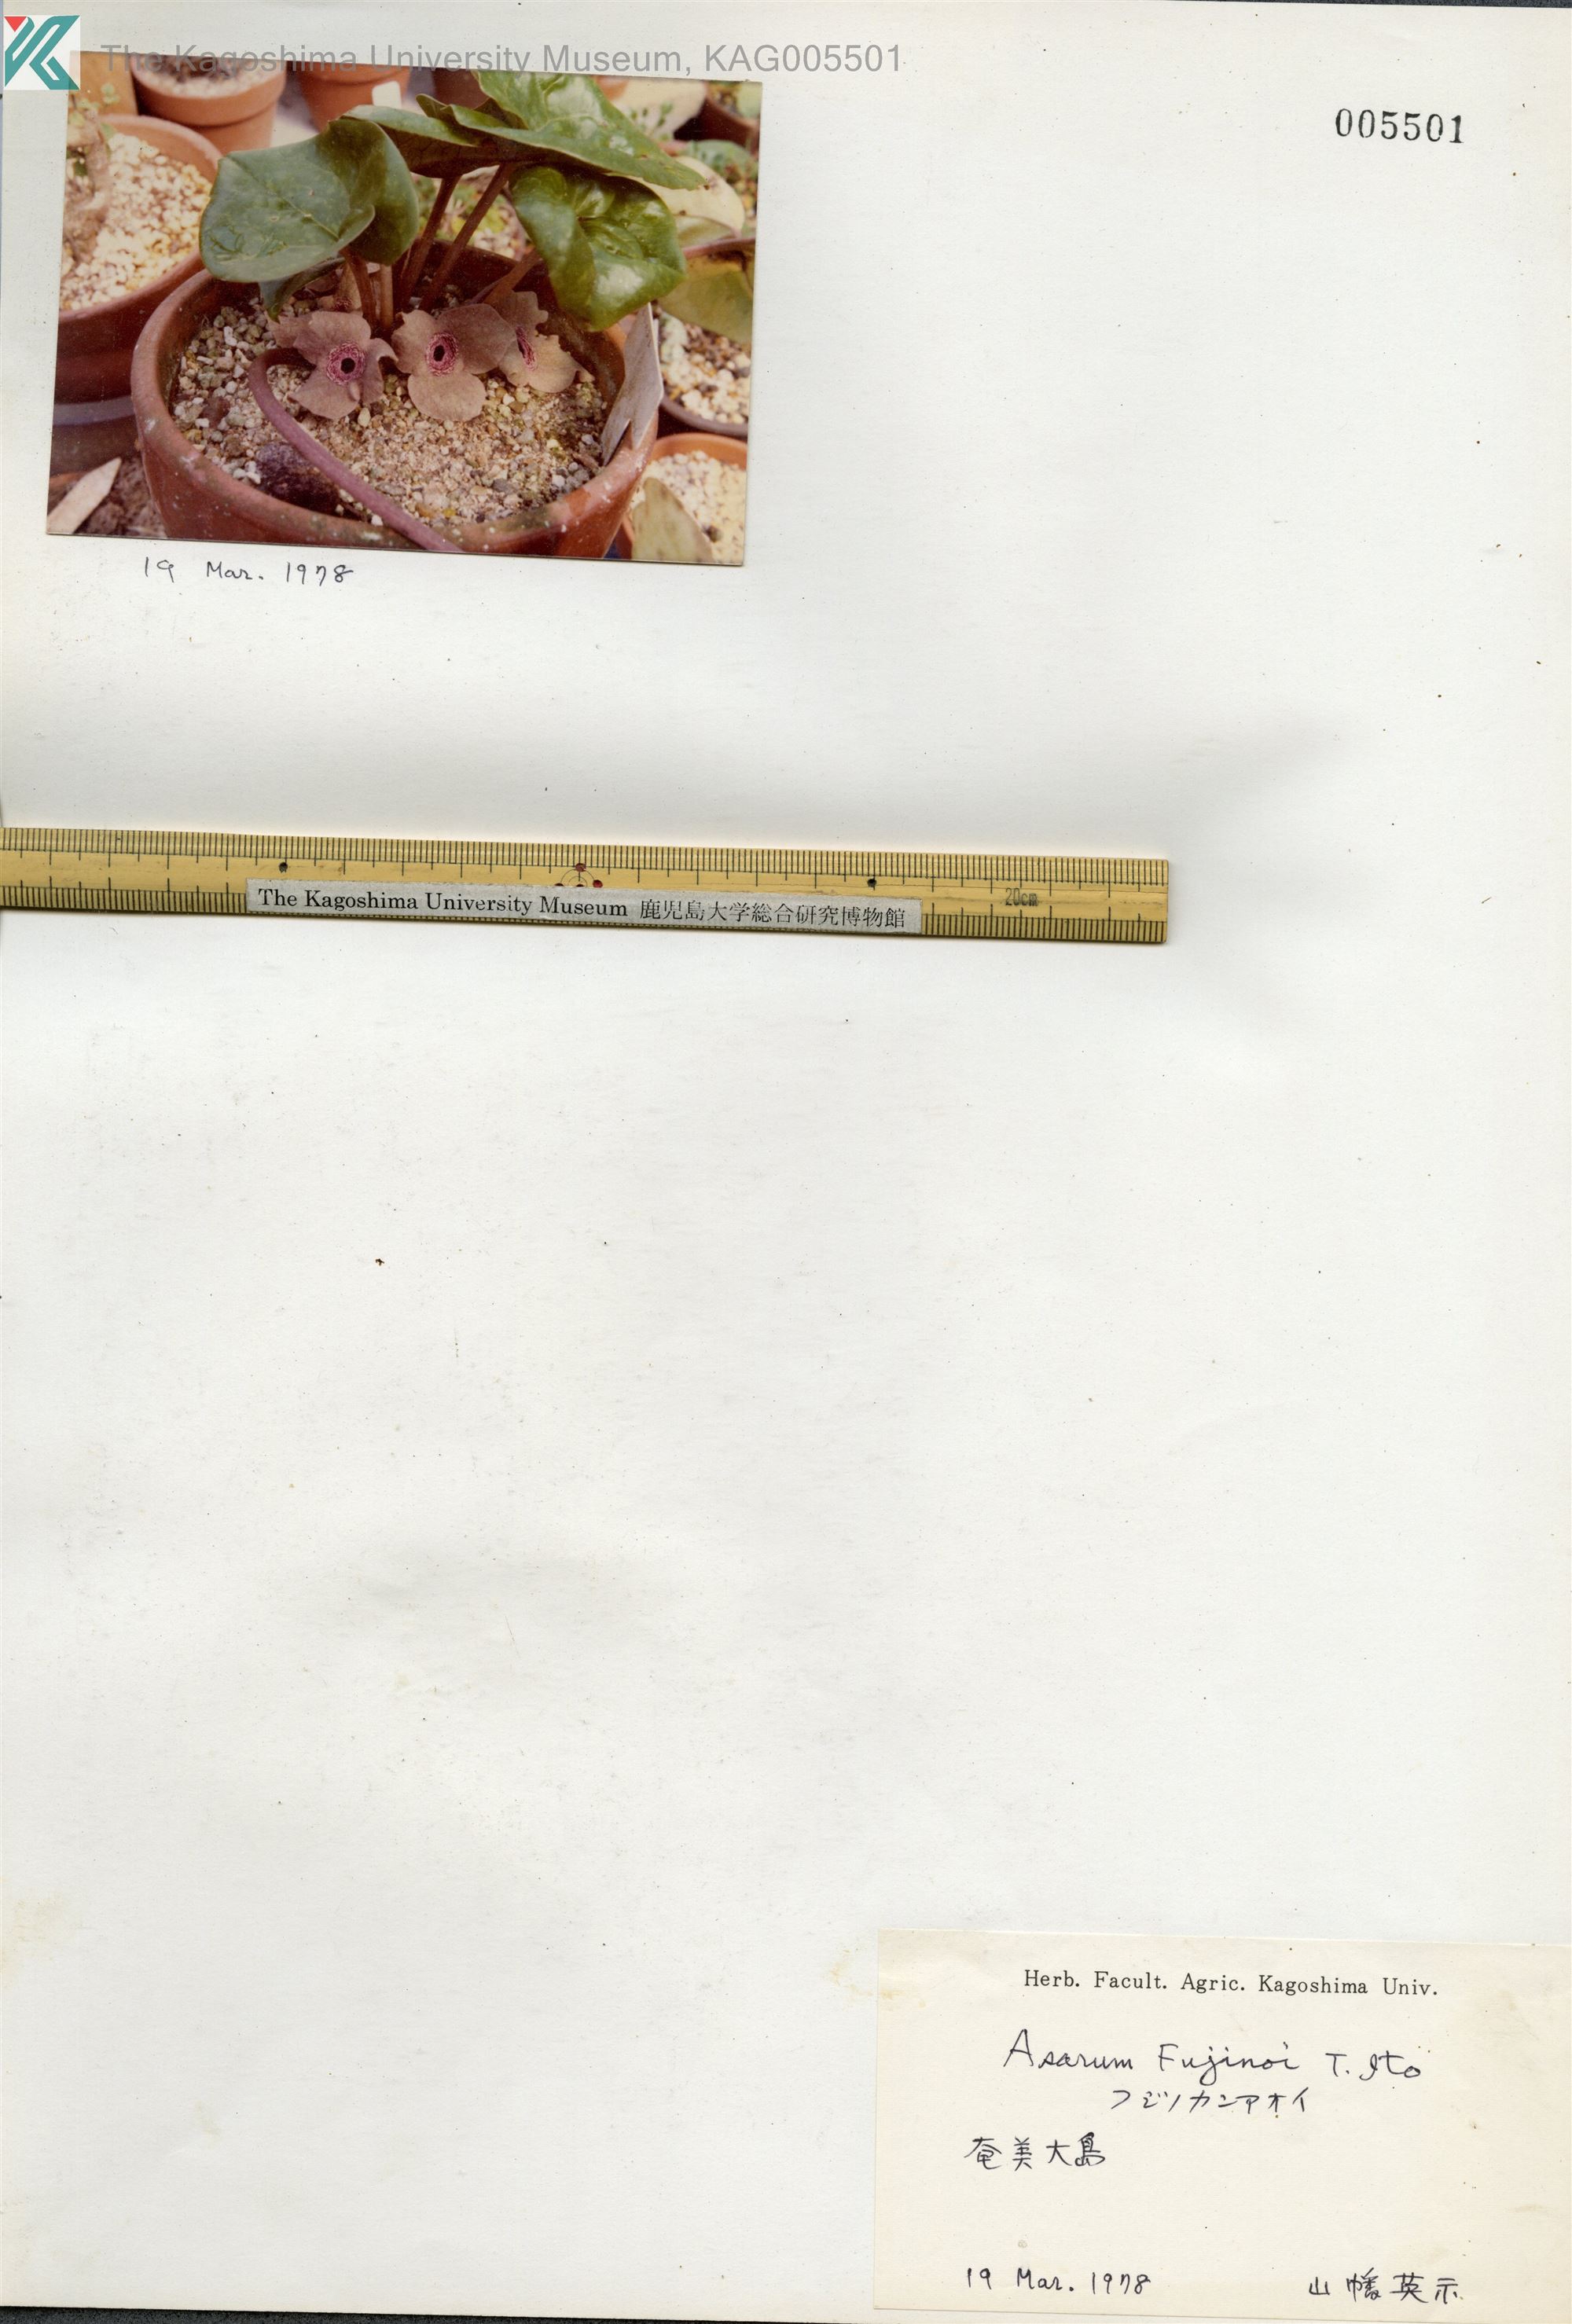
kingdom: Plantae
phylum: Tracheophyta
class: Magnoliopsida
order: Piperales
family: Aristolochiaceae
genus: Asarum
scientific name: Asarum
